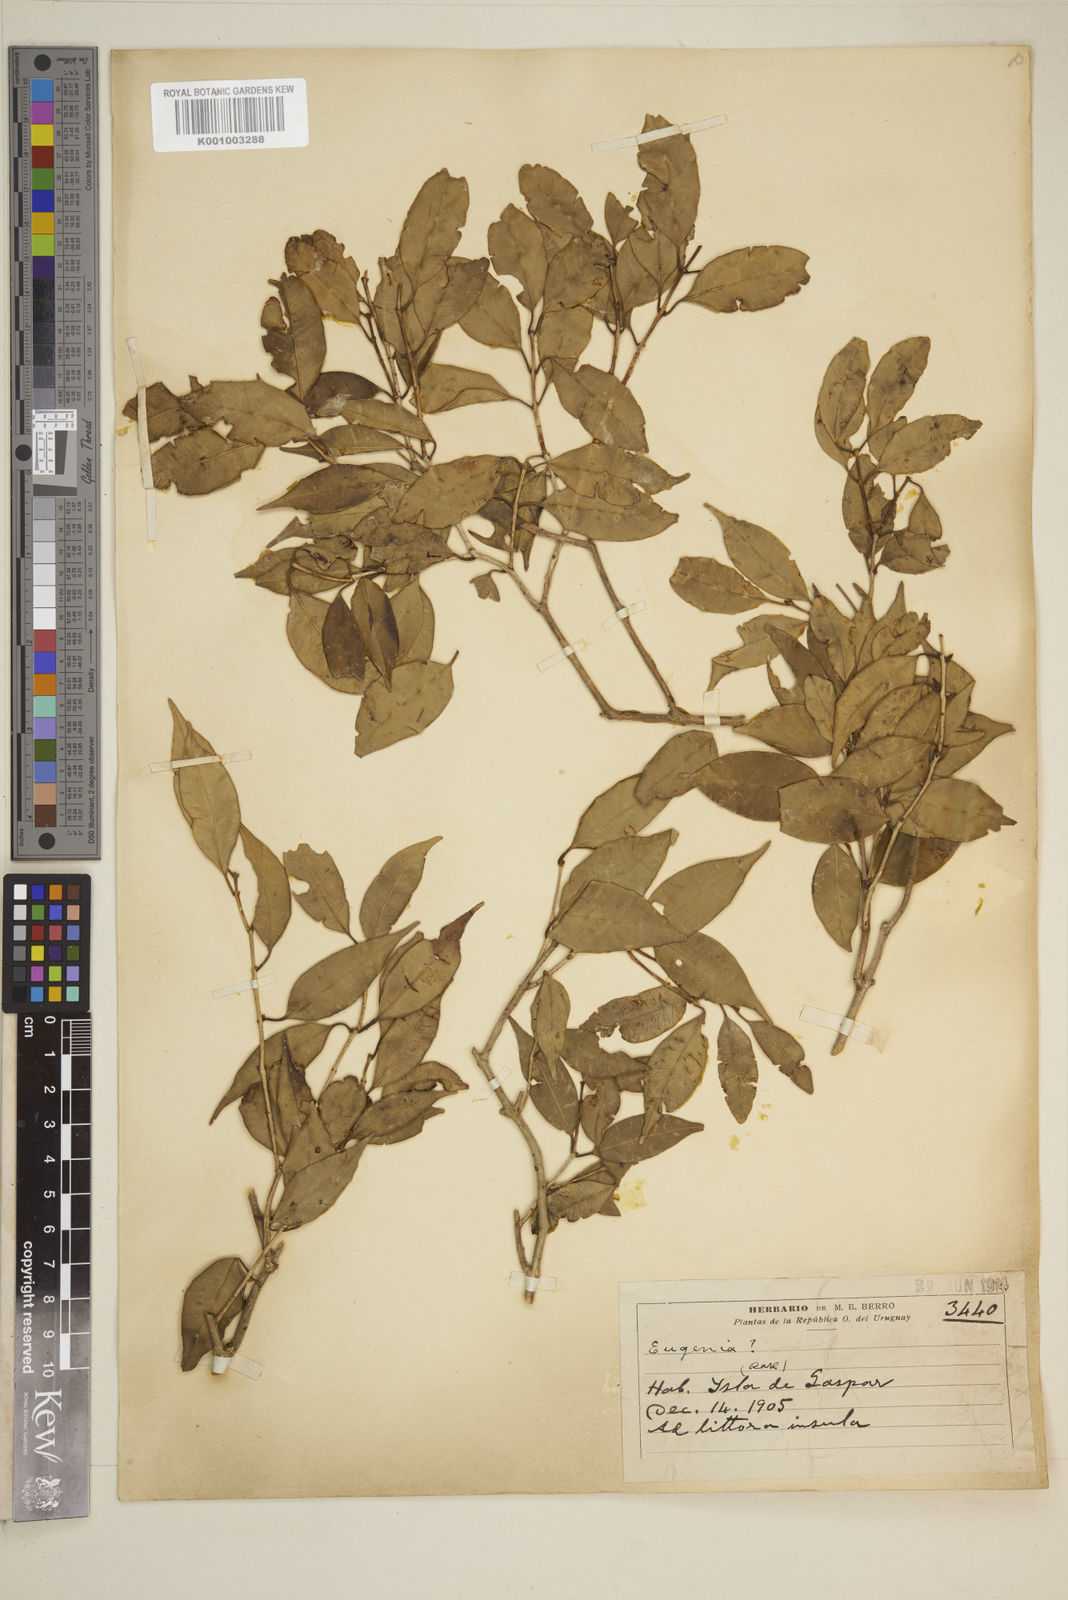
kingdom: Plantae
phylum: Tracheophyta
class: Magnoliopsida
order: Myrtales
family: Myrtaceae
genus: Eugenia
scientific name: Eugenia
